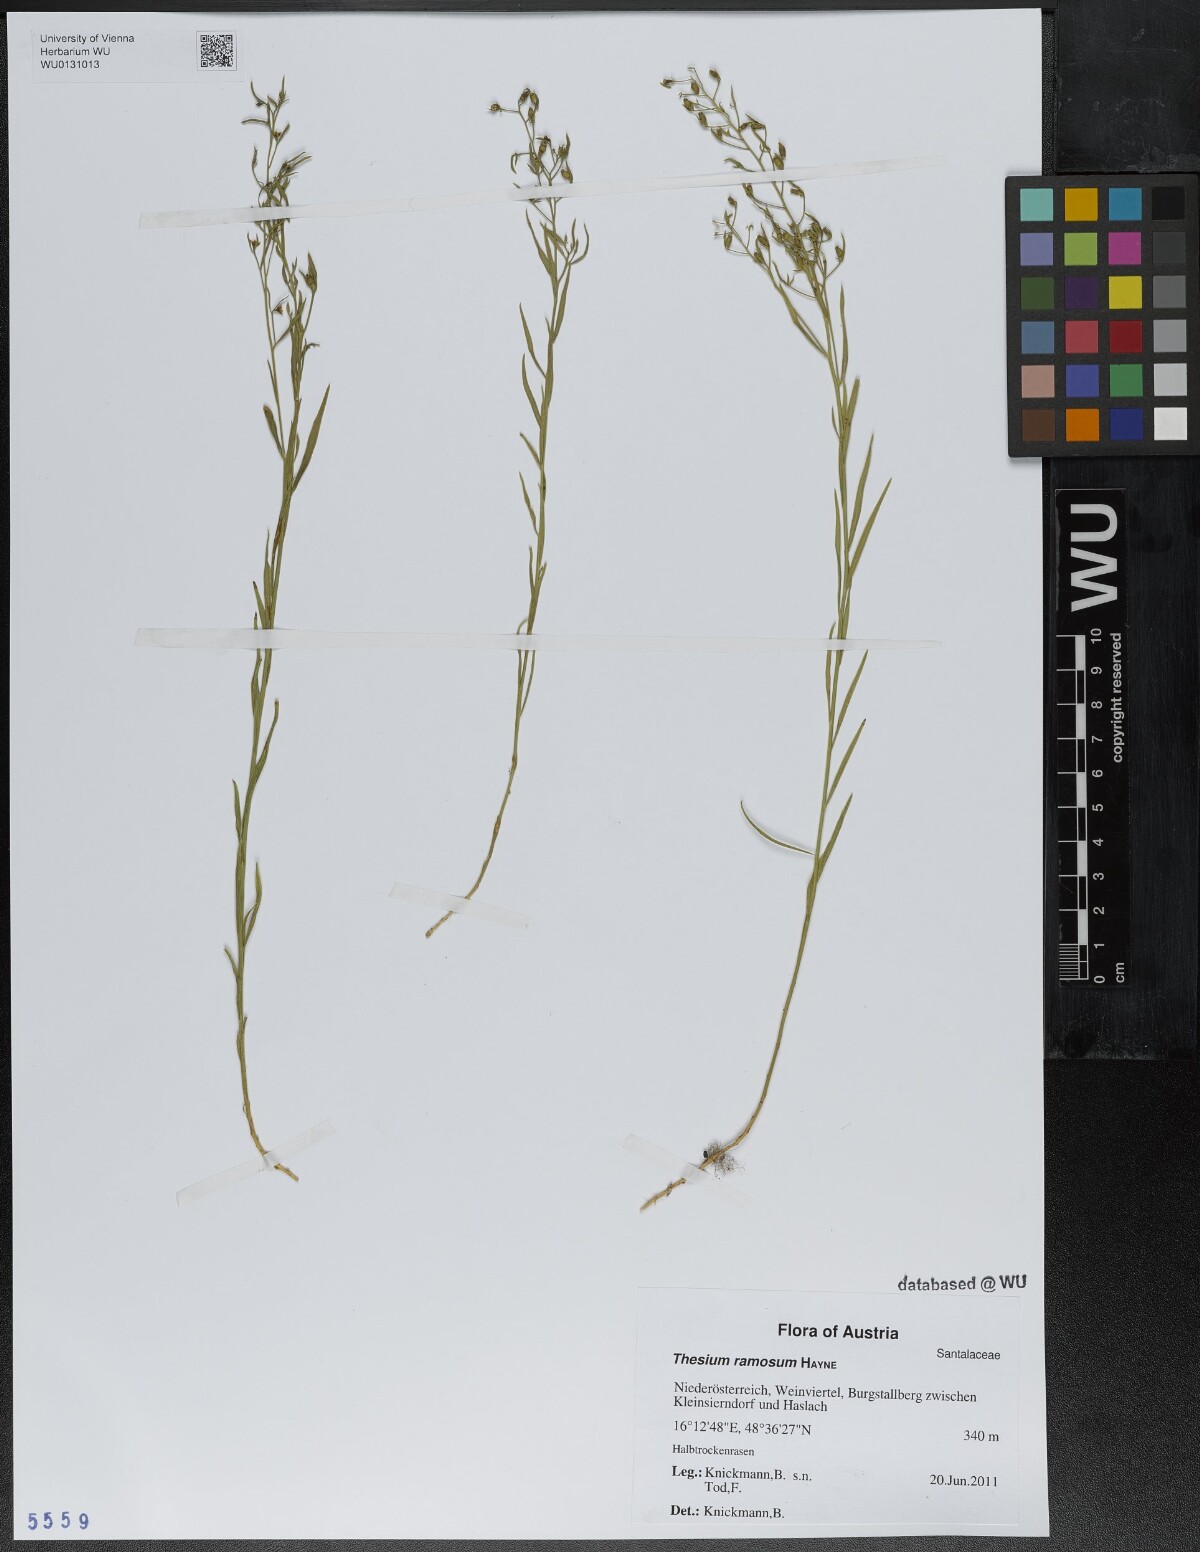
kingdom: Plantae
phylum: Tracheophyta
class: Magnoliopsida
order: Santalales
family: Thesiaceae
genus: Thesium
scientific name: Thesium ramosum
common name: Field thesium
